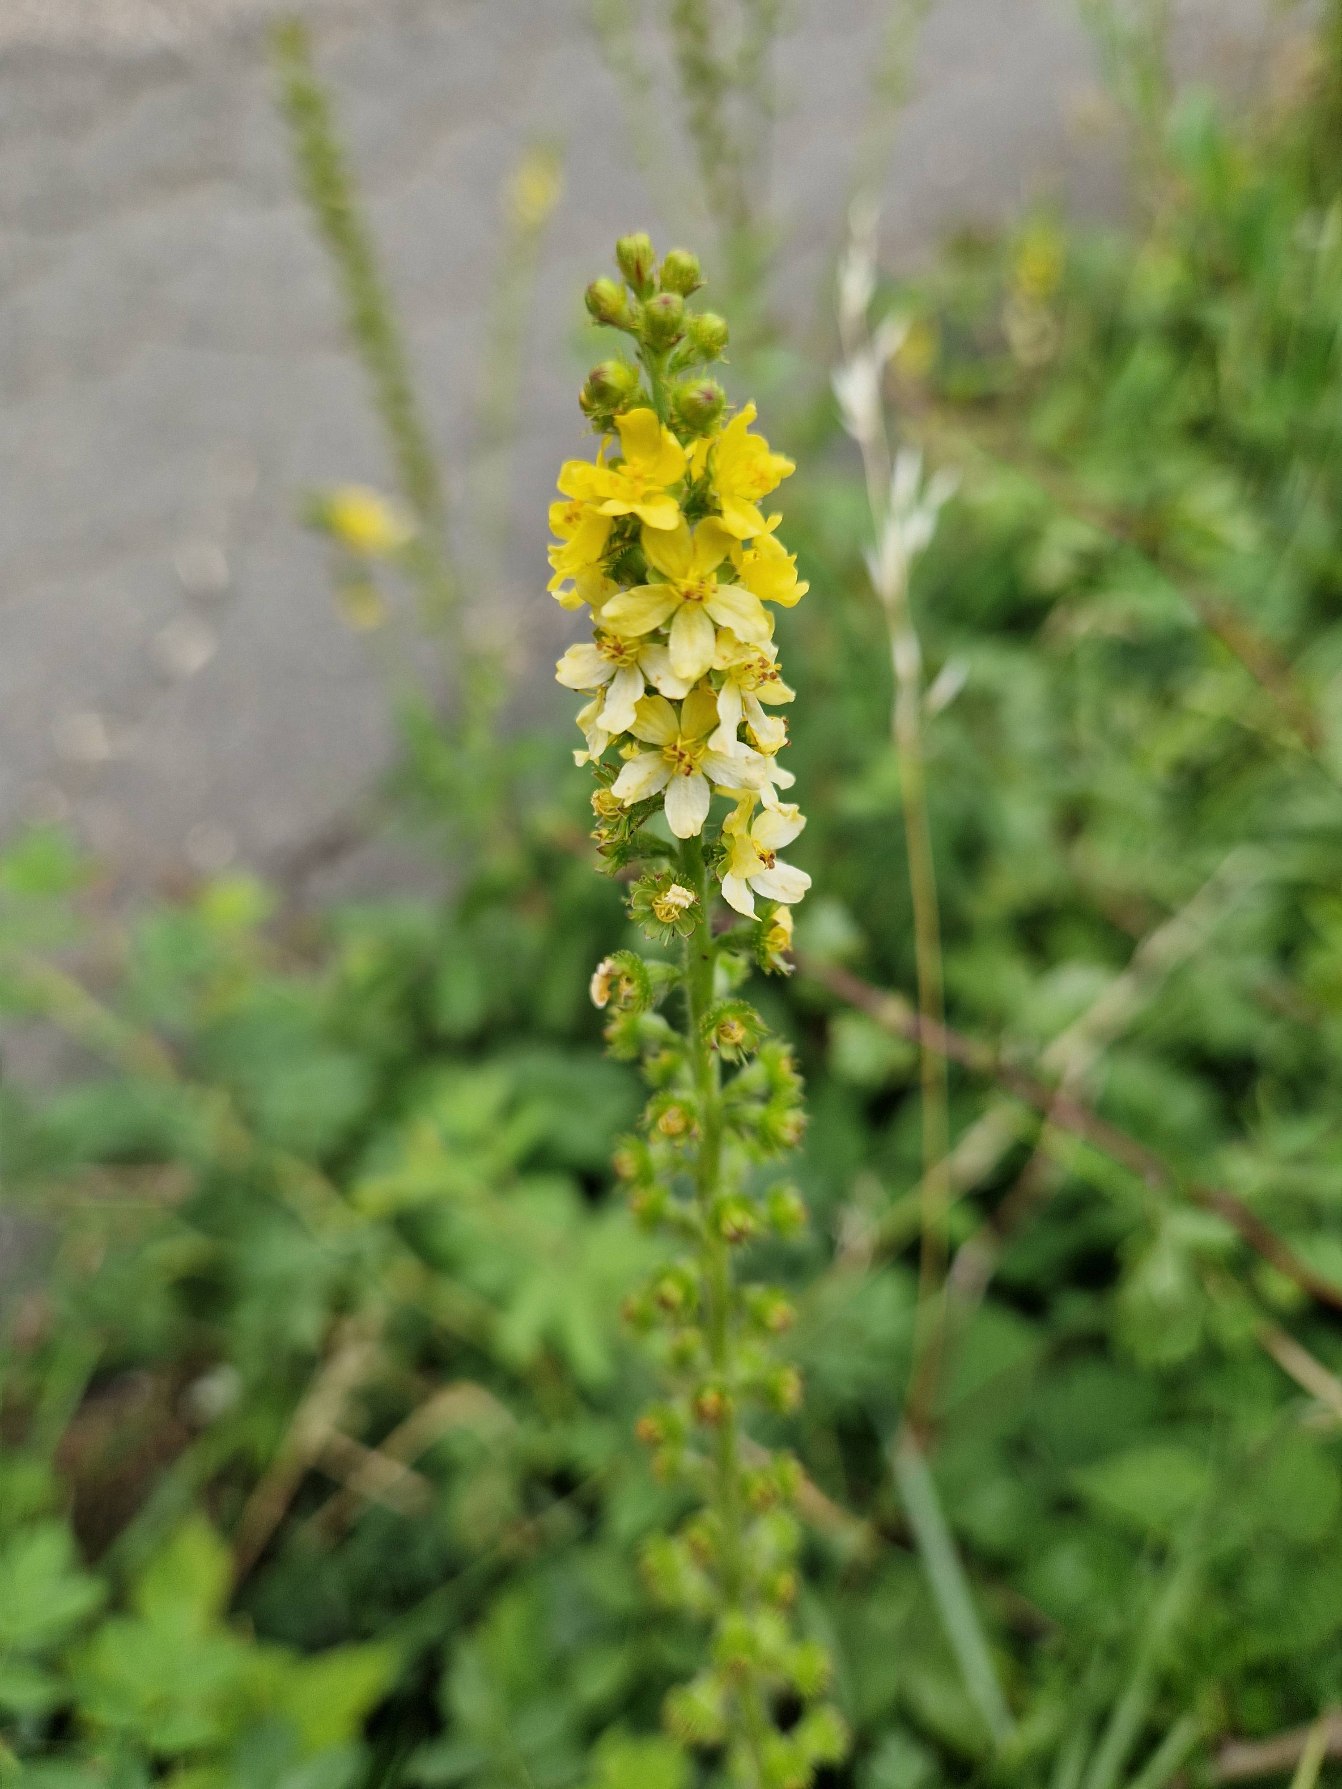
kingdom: Plantae
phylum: Tracheophyta
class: Magnoliopsida
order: Rosales
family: Rosaceae
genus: Agrimonia
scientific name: Agrimonia eupatoria
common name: Almindelig agermåne
